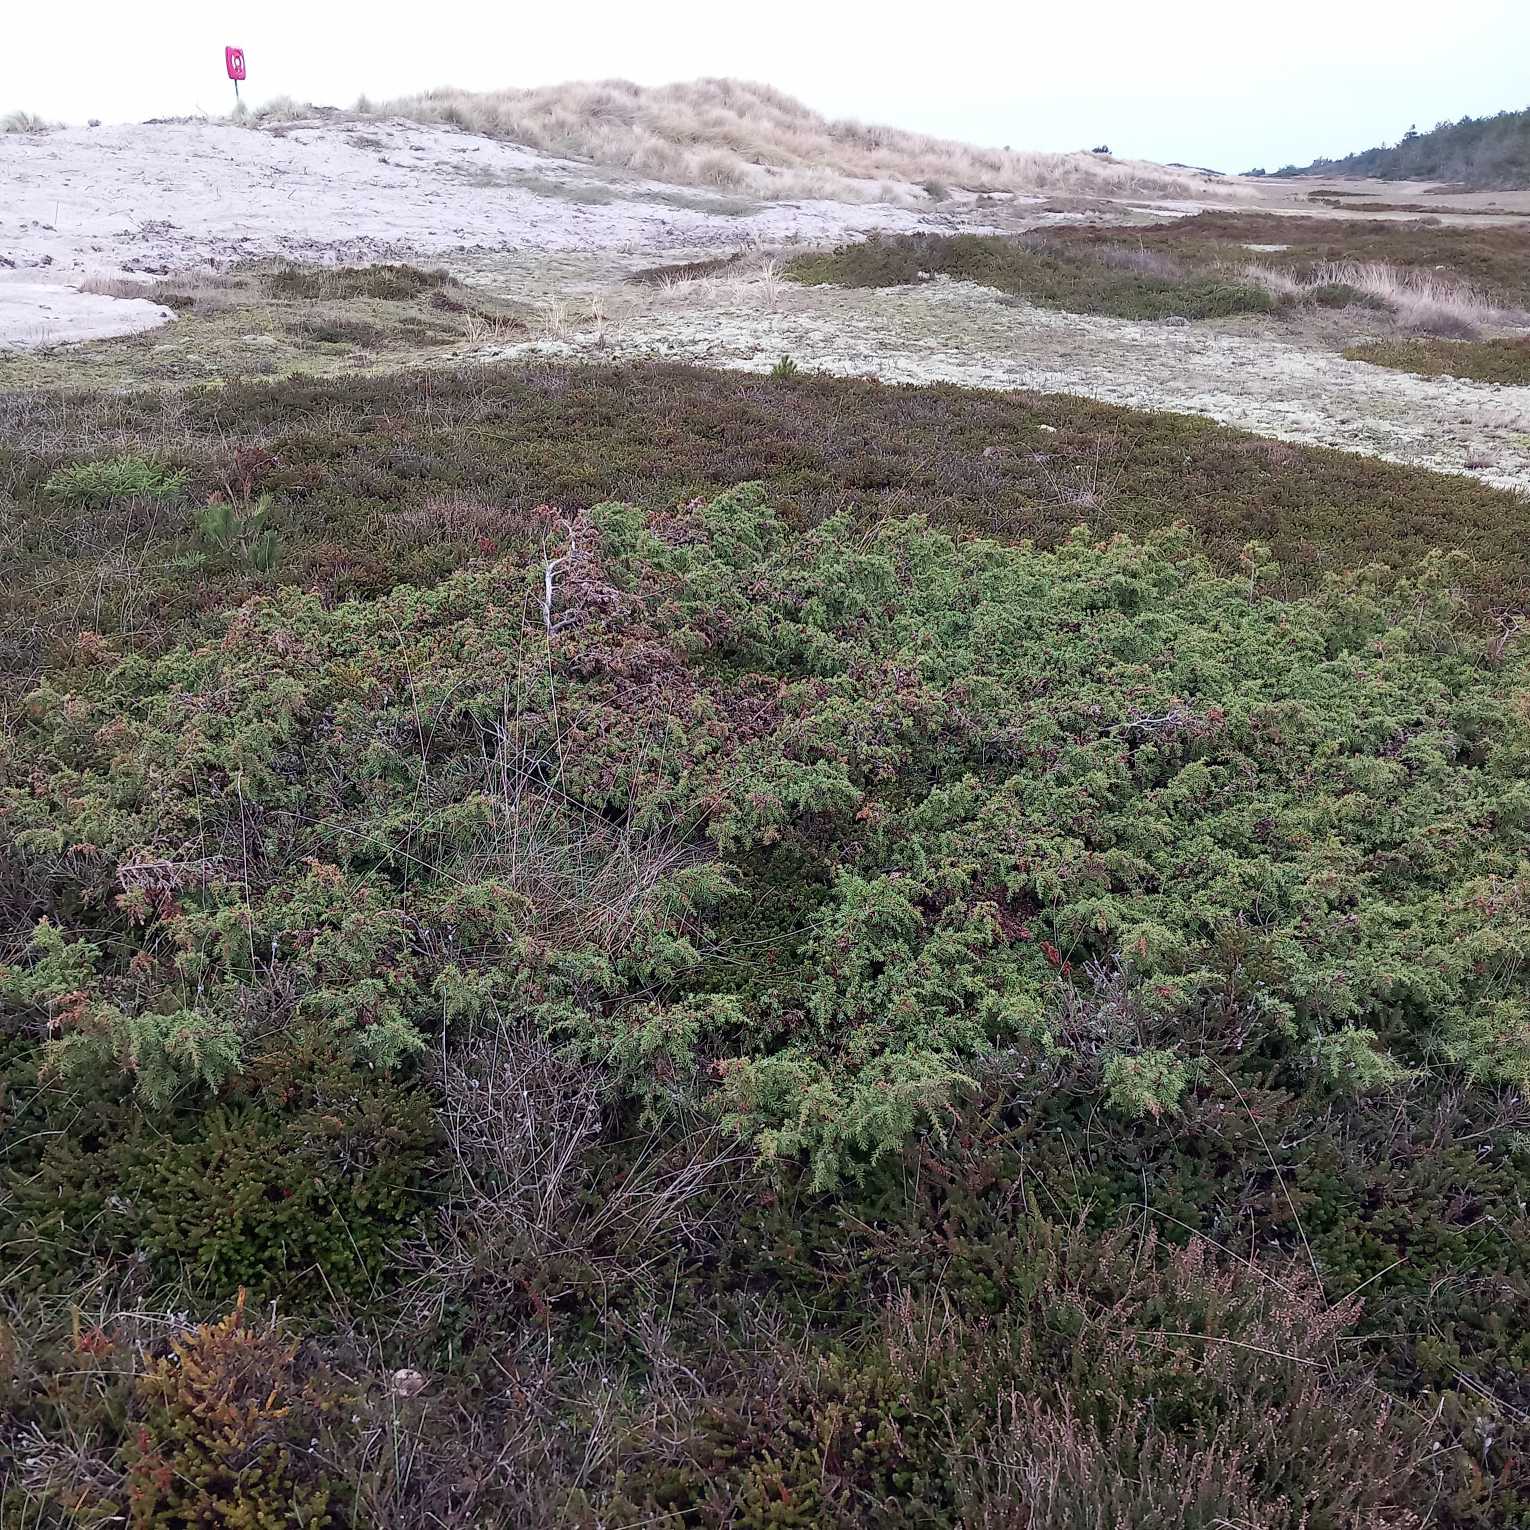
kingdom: Plantae
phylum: Tracheophyta
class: Pinopsida
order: Pinales
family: Cupressaceae
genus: Juniperus
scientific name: Juniperus communis
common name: Almindelig ene
